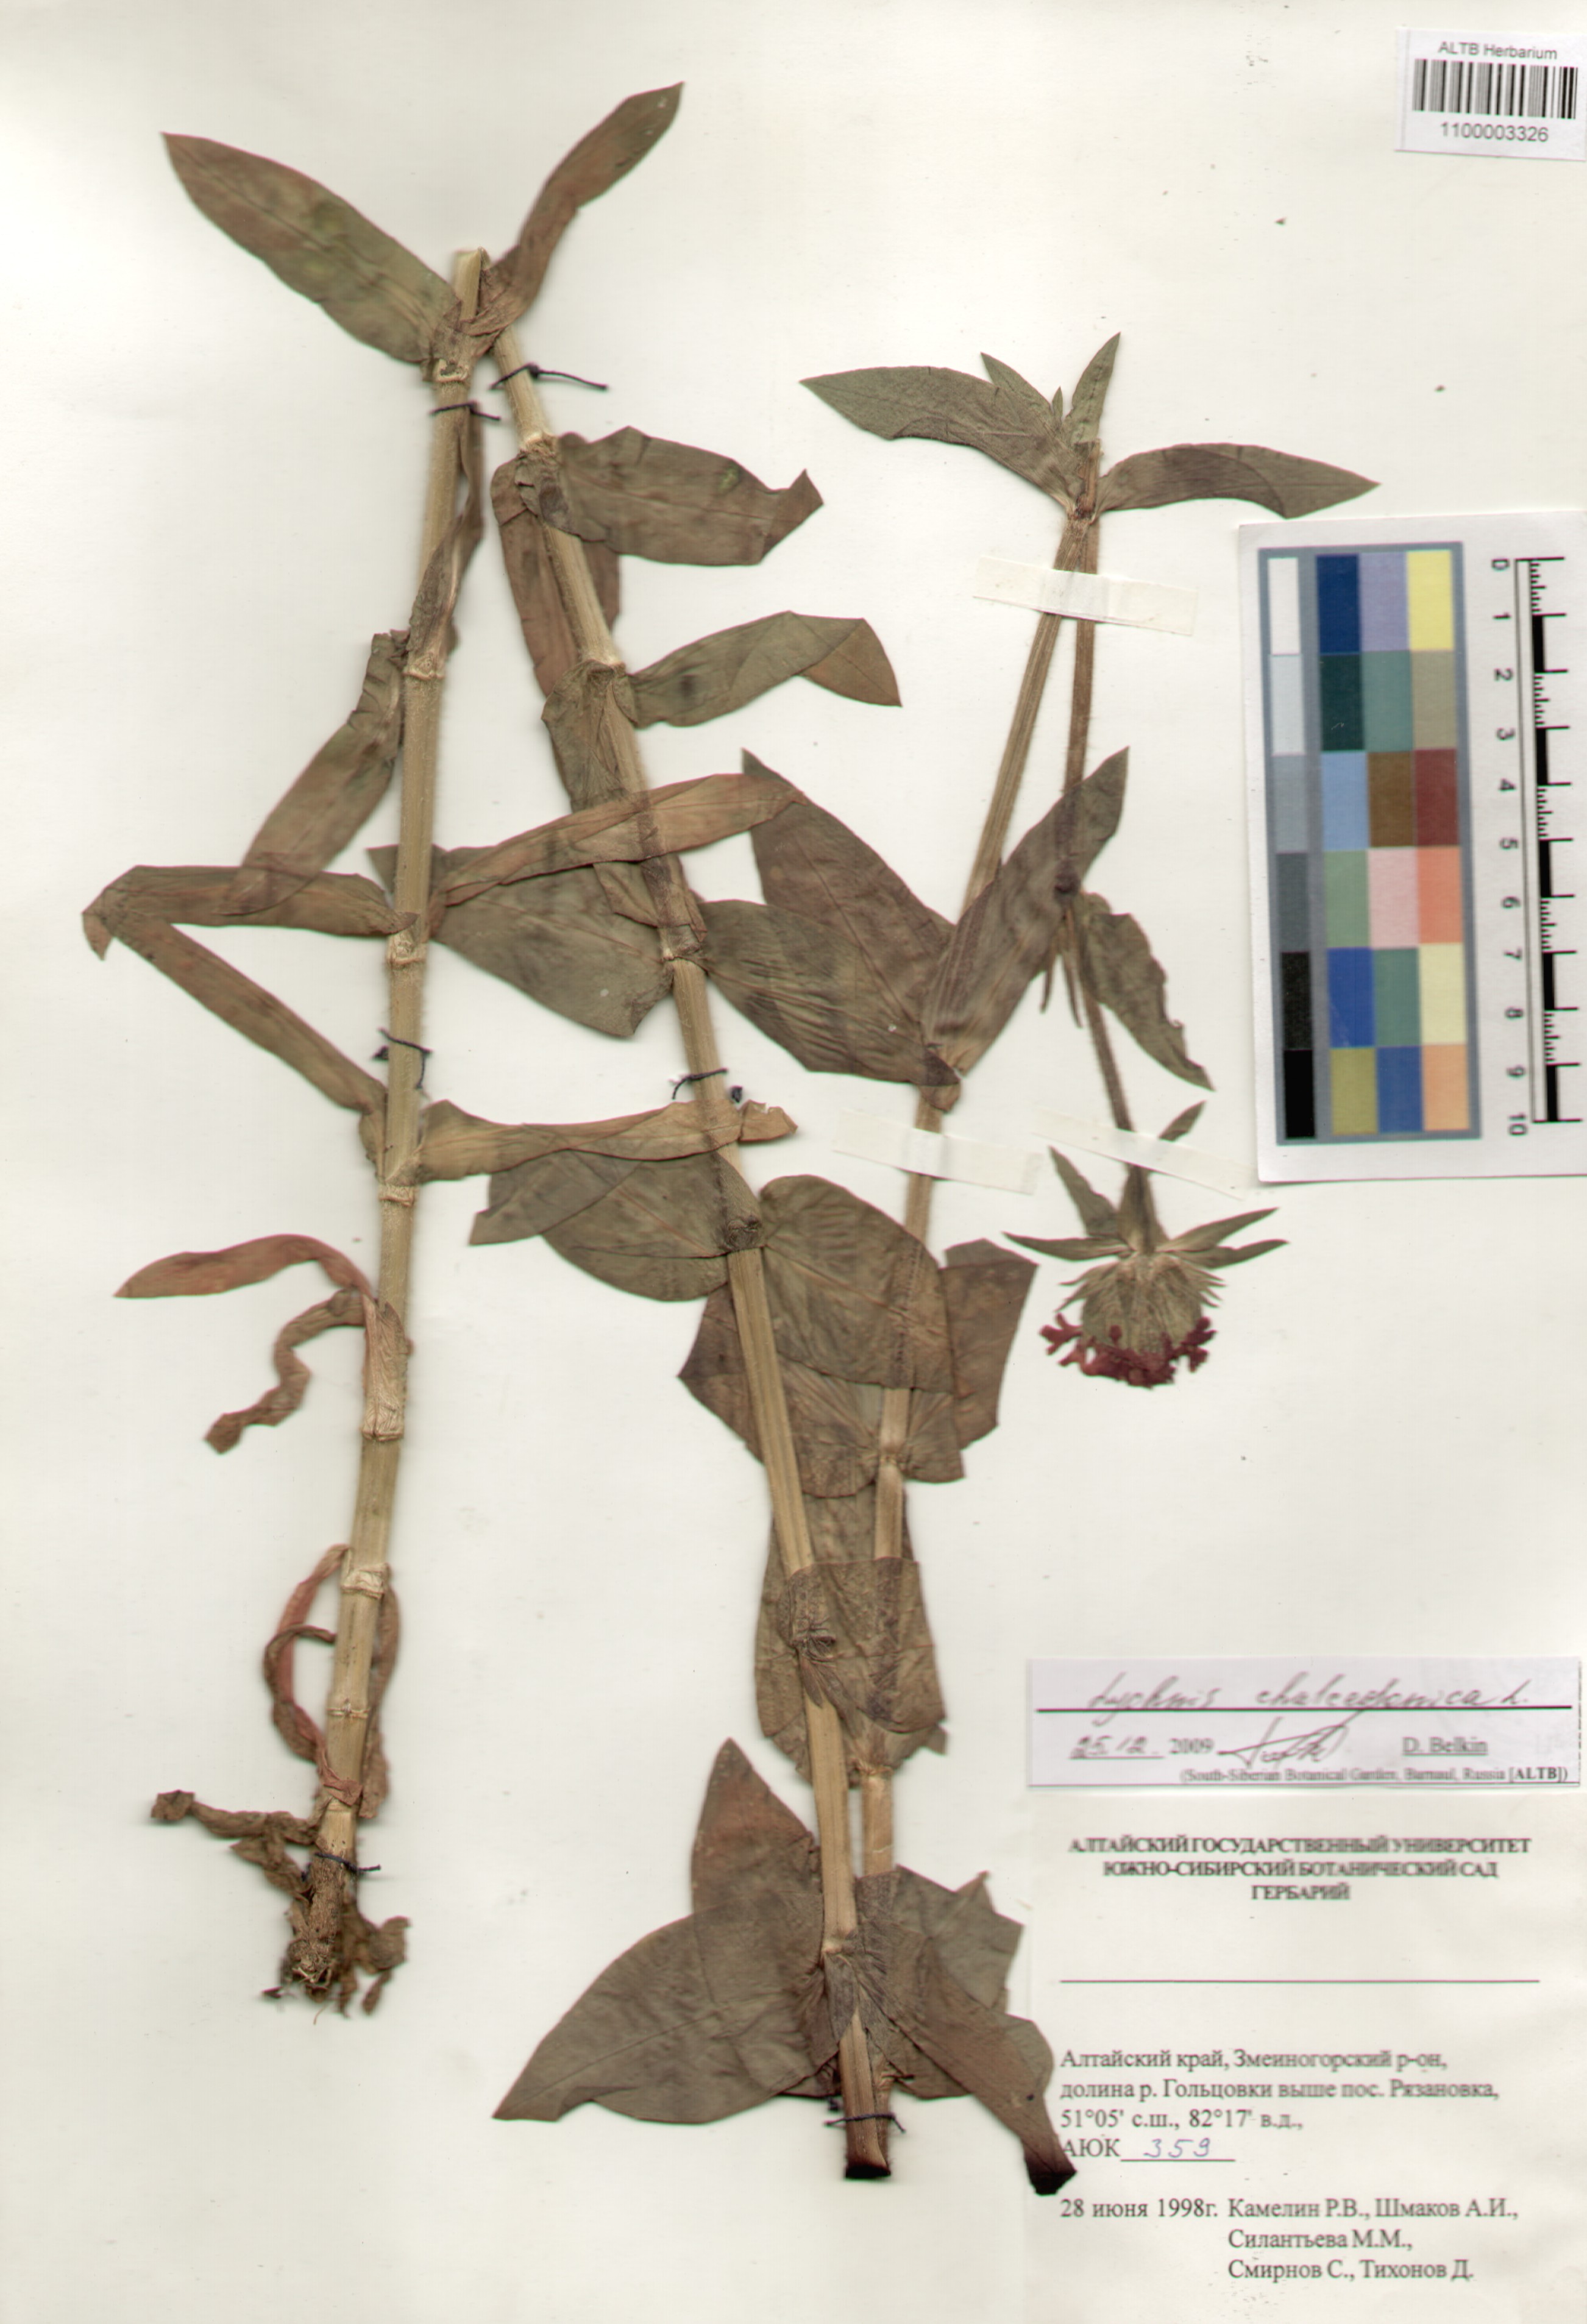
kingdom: Plantae
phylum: Tracheophyta
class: Magnoliopsida
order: Caryophyllales
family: Caryophyllaceae
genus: Silene
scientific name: Silene chalcedonica
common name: Maltese-cross
